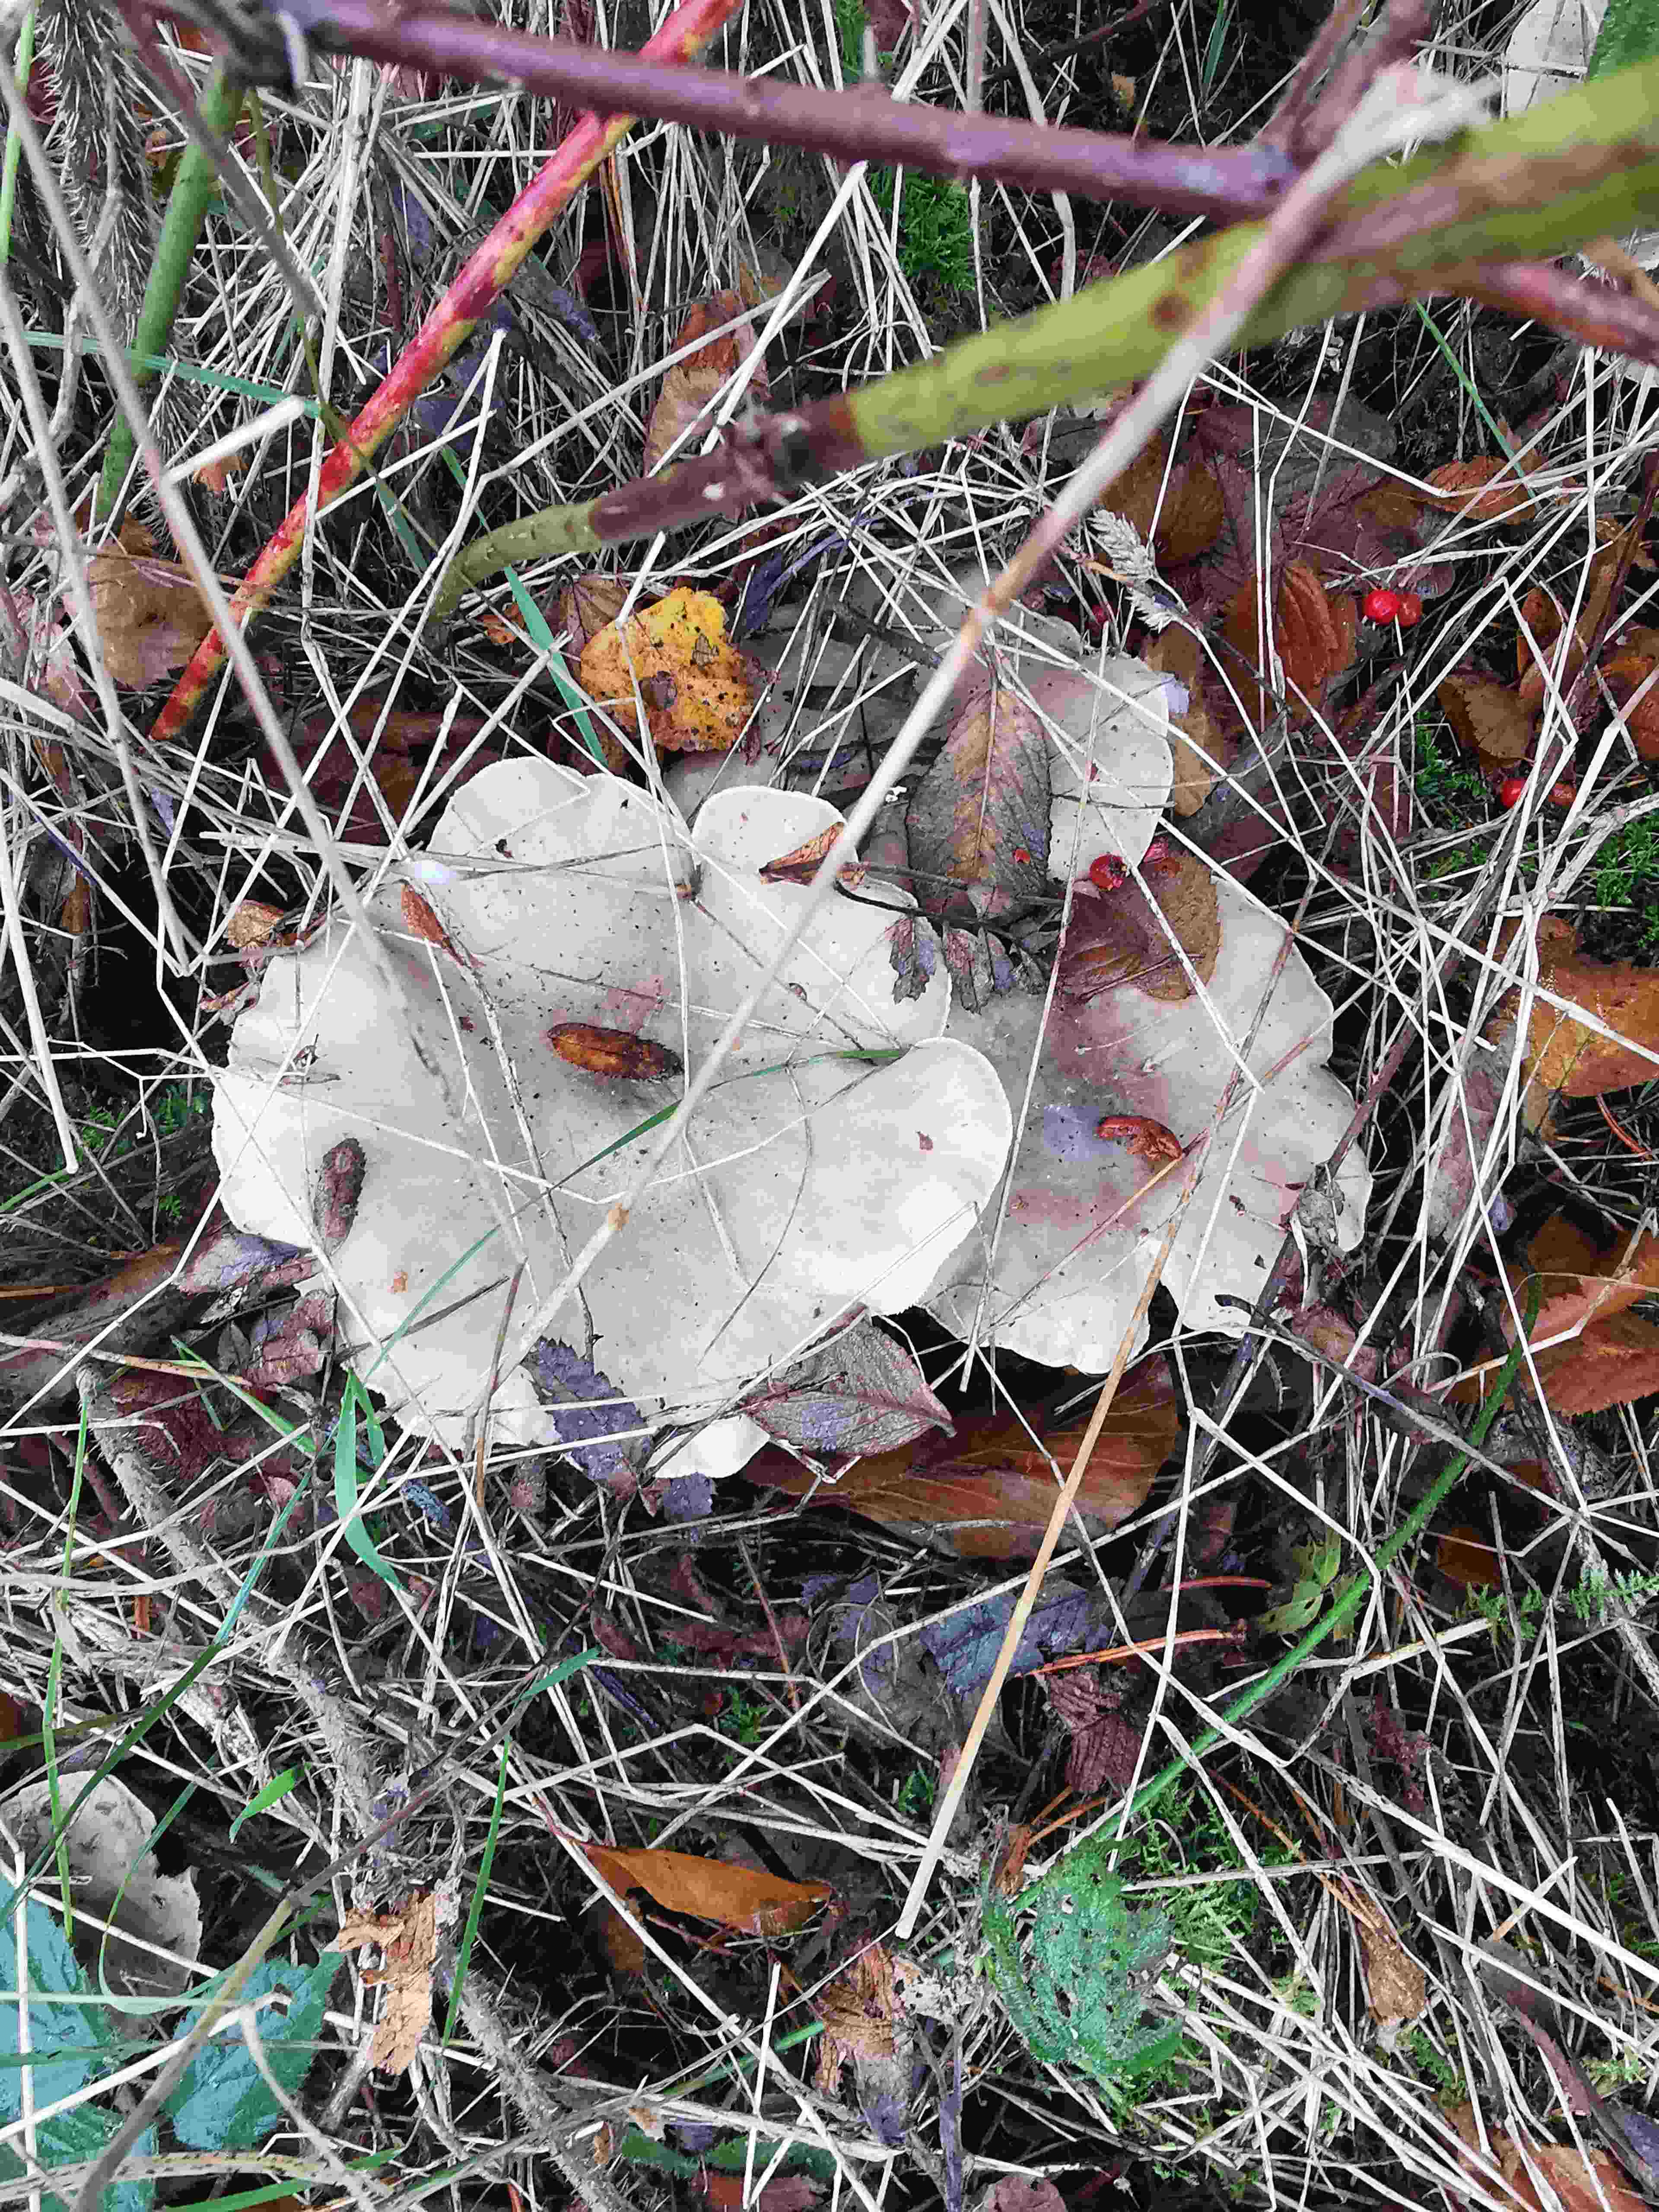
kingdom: Fungi
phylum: Basidiomycota
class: Agaricomycetes
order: Agaricales
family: Tricholomataceae
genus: Clitocybe
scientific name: Clitocybe nebularis
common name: tåge-tragthat
